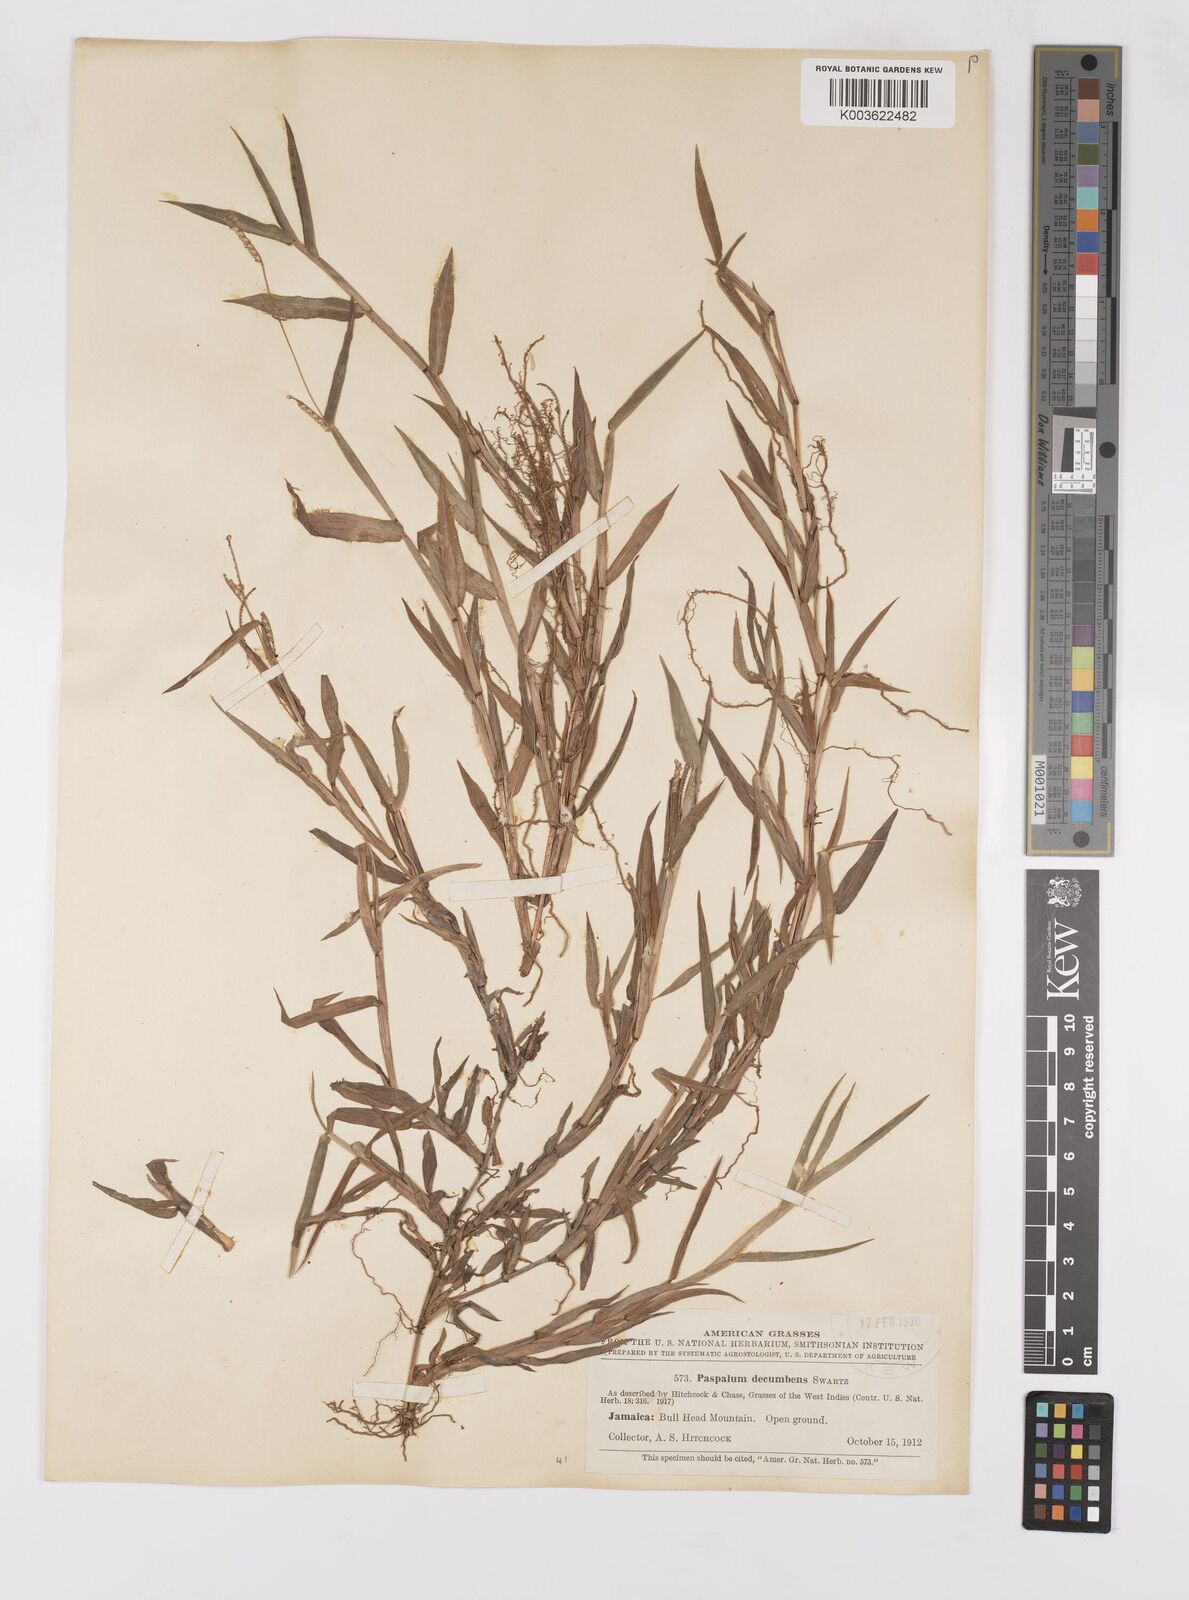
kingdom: Plantae
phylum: Tracheophyta
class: Liliopsida
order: Poales
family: Poaceae
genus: Paspalum
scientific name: Paspalum decumbens
